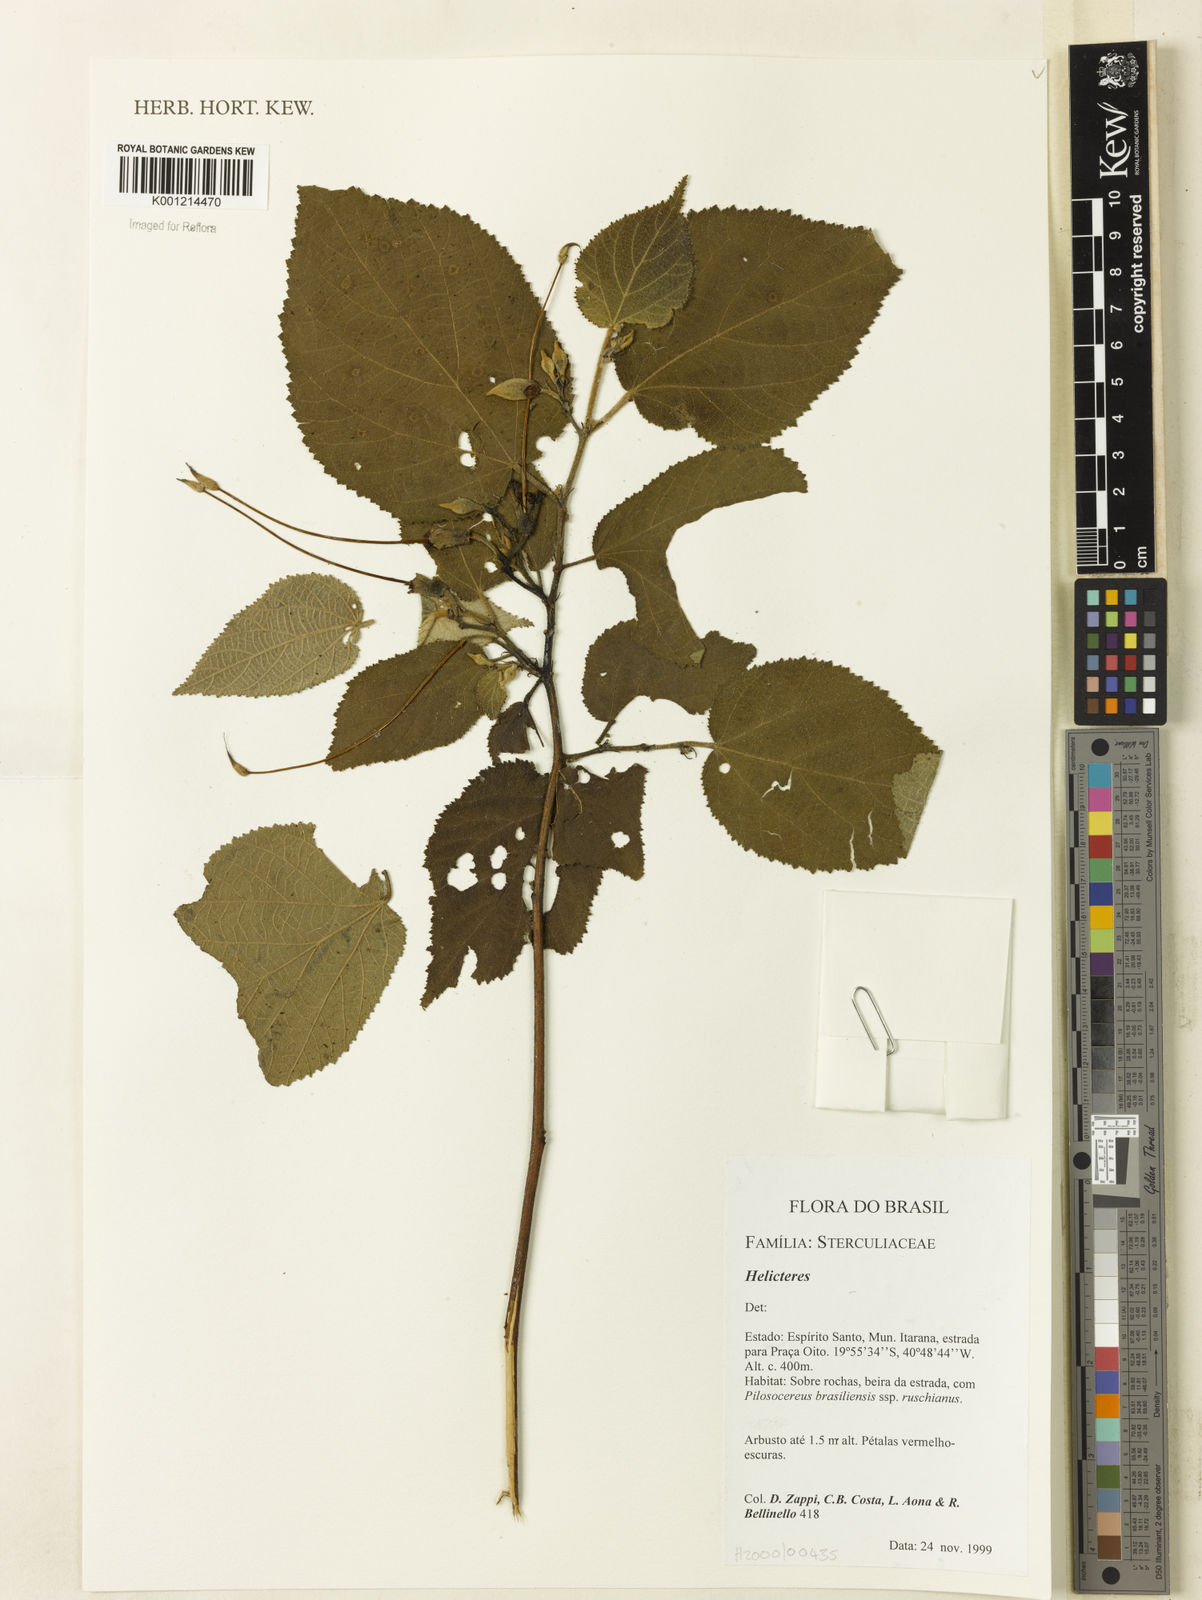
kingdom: Plantae
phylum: Tracheophyta
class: Magnoliopsida
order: Malvales
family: Malvaceae
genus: Helicteres
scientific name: Helicteres
